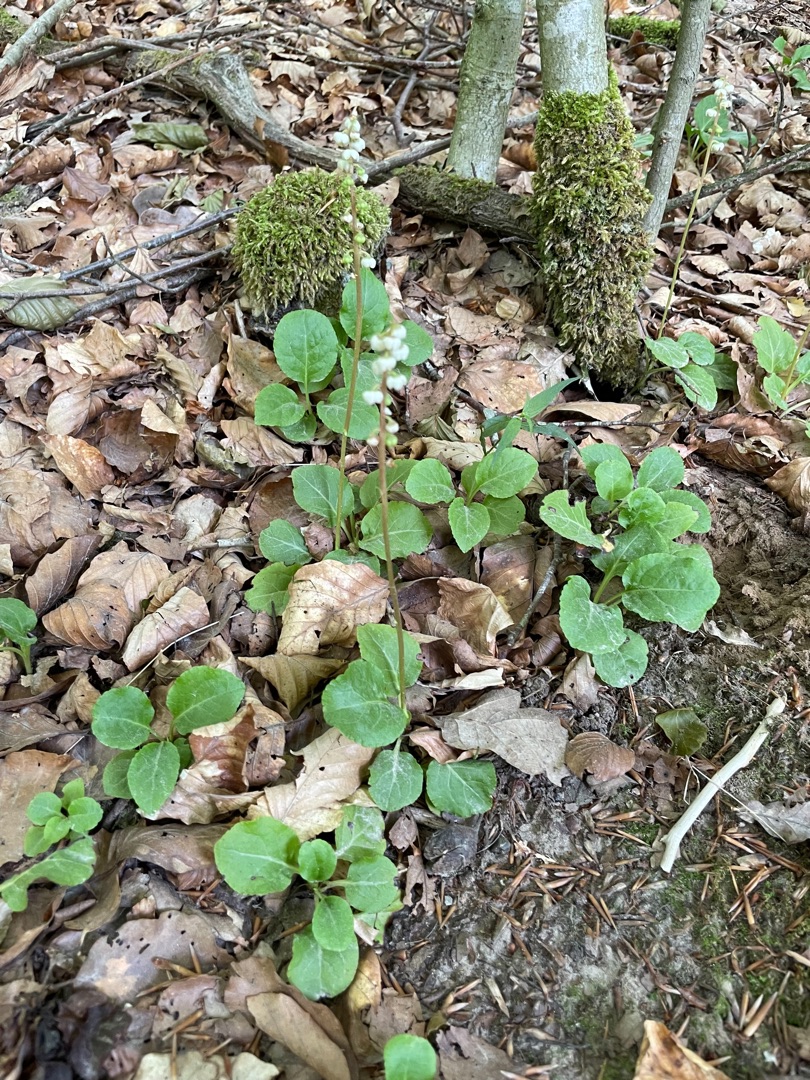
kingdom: Plantae
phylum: Tracheophyta
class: Magnoliopsida
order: Ericales
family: Ericaceae
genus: Pyrola
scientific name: Pyrola media
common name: Klokke-vintergrøn
